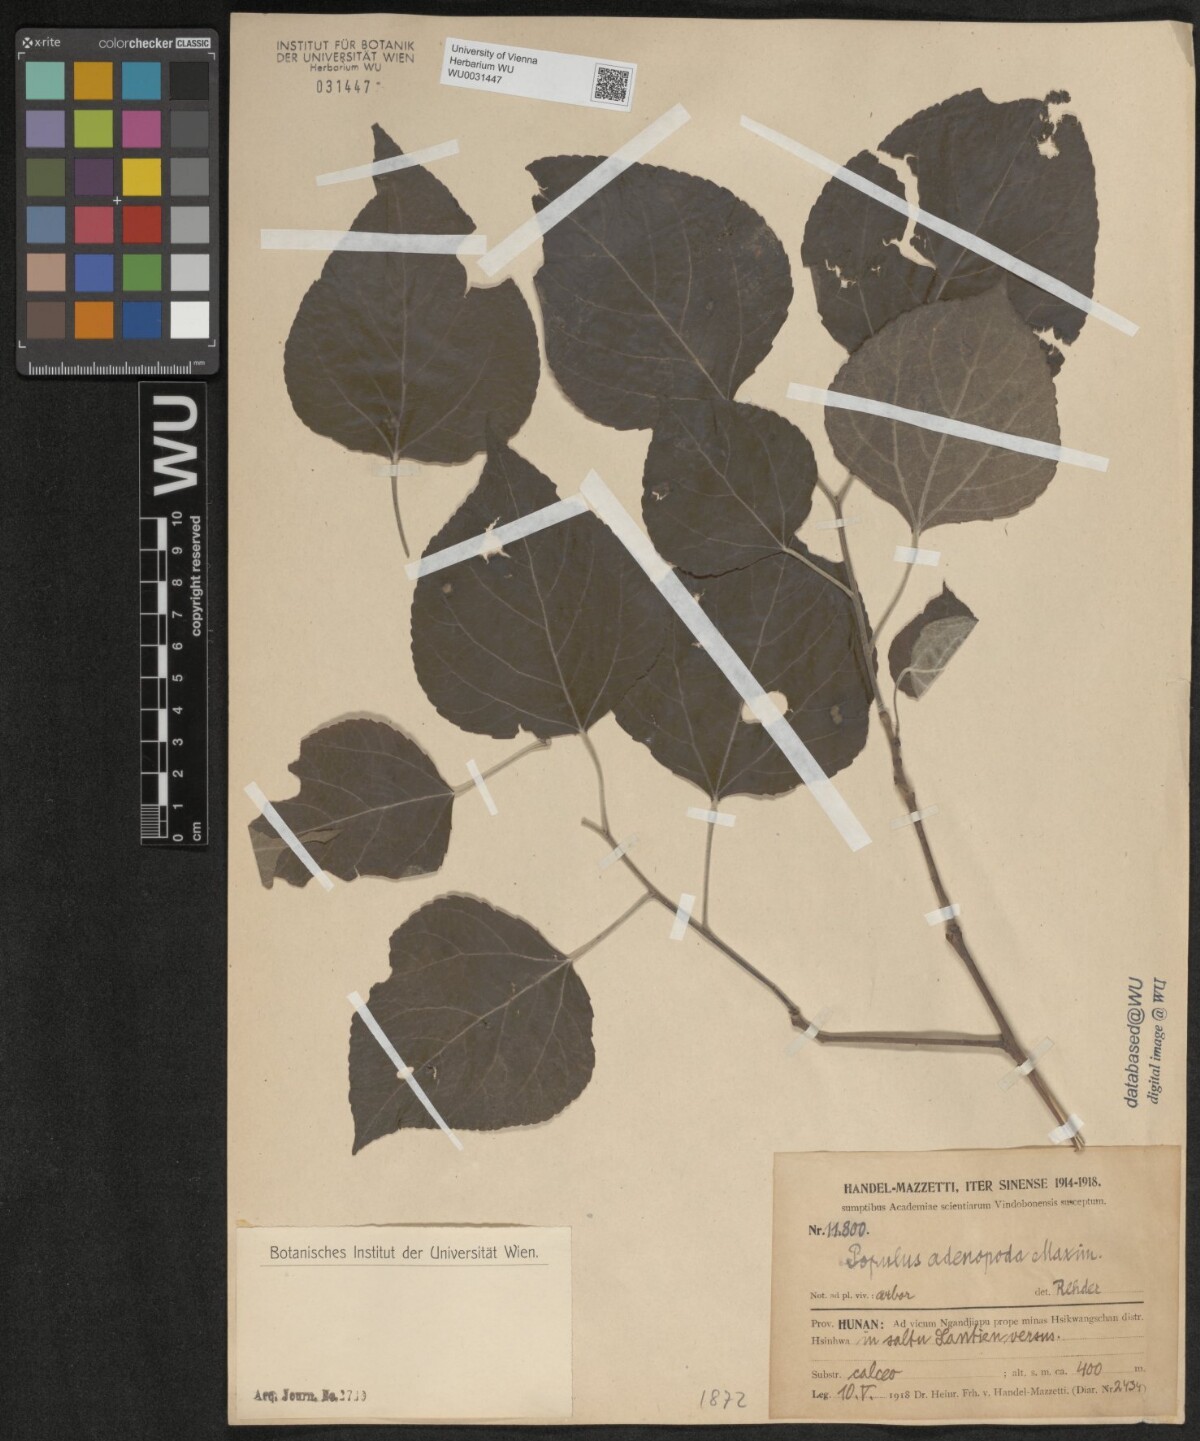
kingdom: Plantae
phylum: Tracheophyta
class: Magnoliopsida
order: Malpighiales
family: Salicaceae
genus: Populus
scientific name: Populus adenopoda
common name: Chinese aspen
